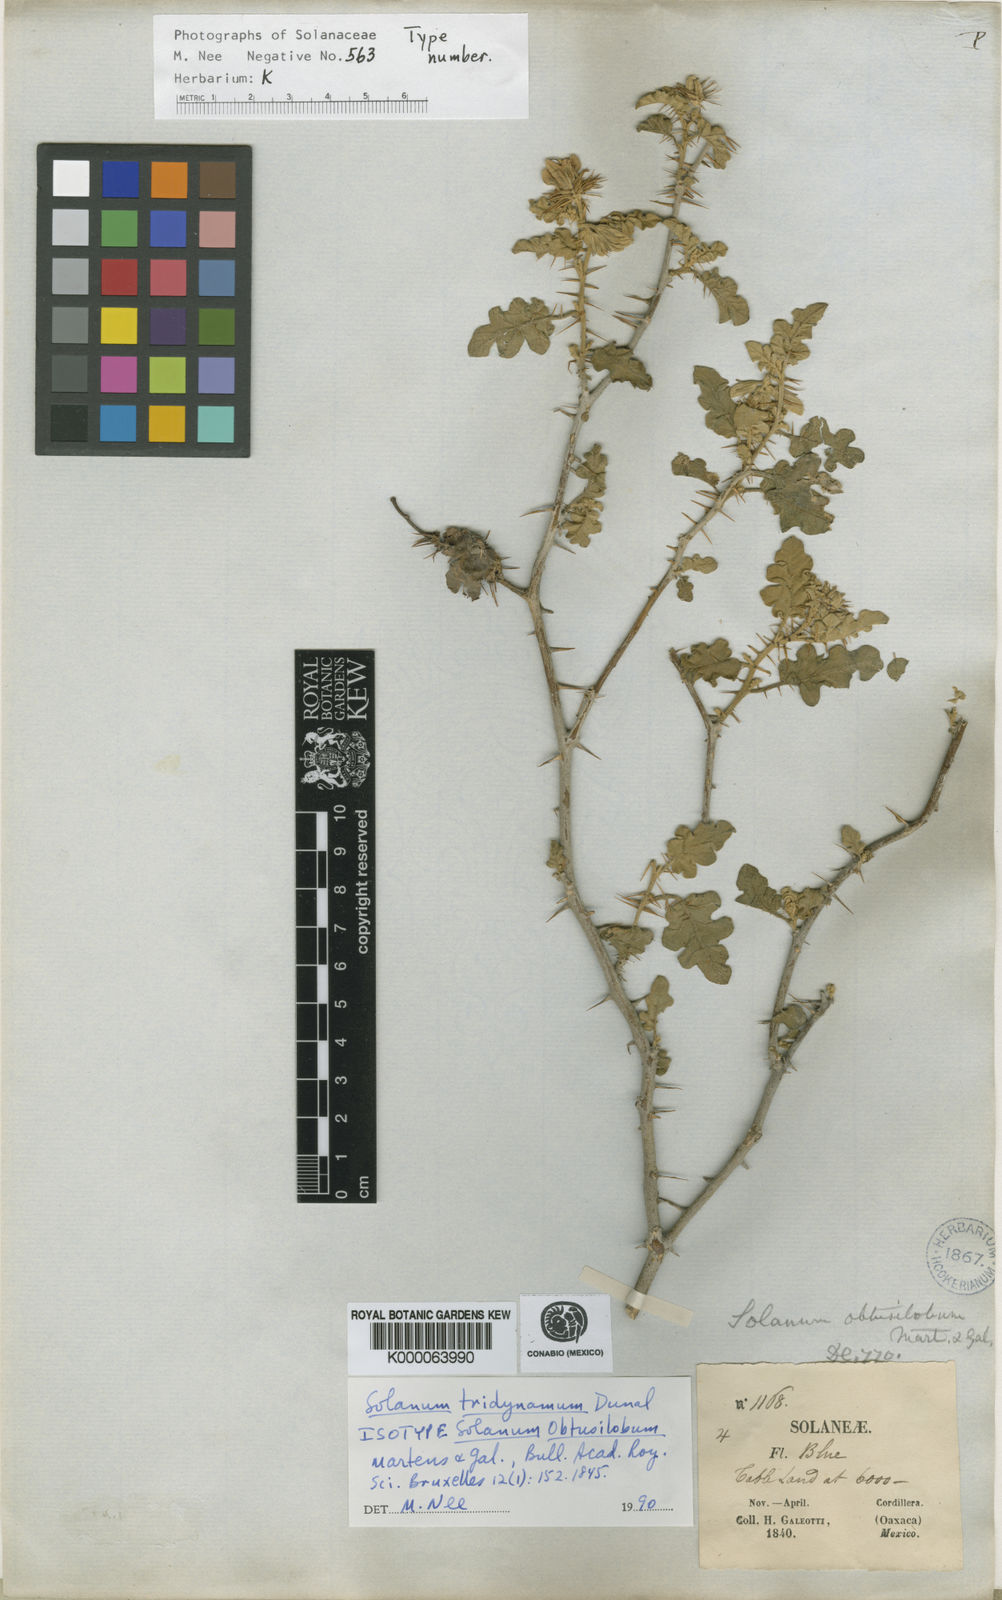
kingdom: Plantae
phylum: Tracheophyta
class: Magnoliopsida
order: Solanales
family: Solanaceae
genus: Solanum
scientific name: Solanum houstonii
